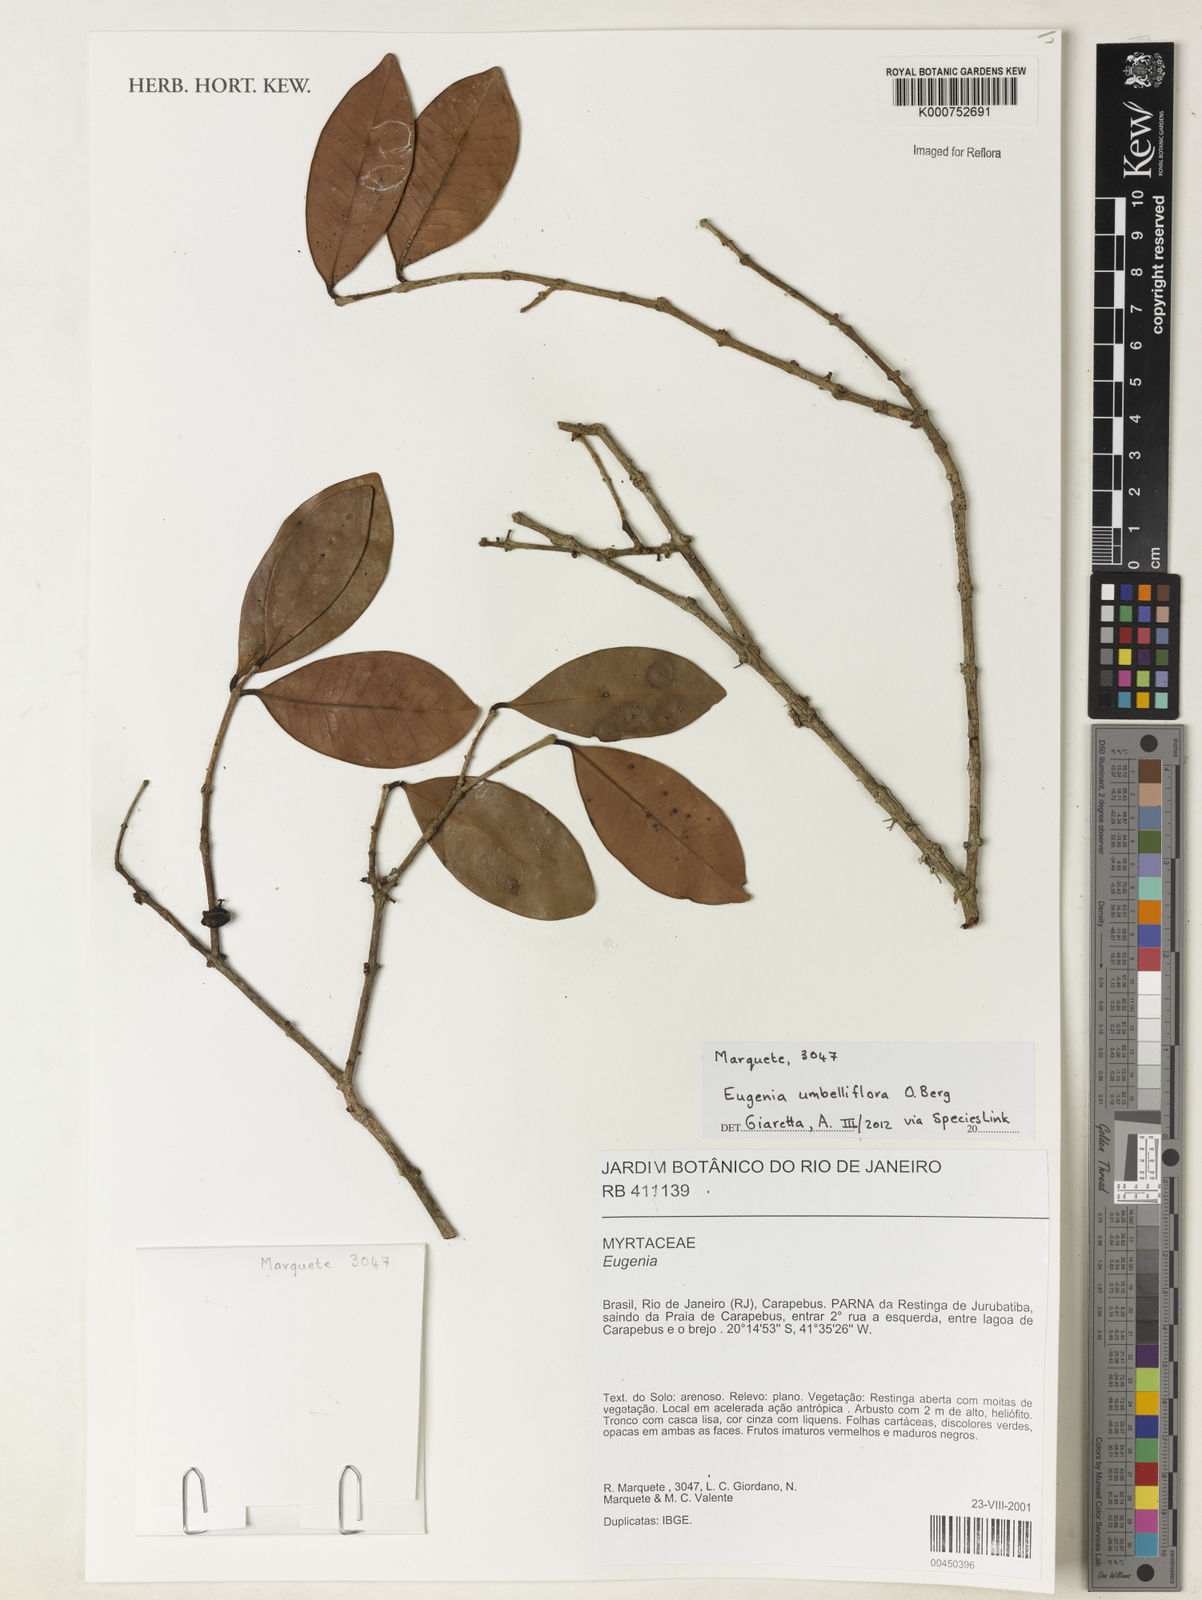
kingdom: Plantae
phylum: Tracheophyta
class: Magnoliopsida
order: Myrtales
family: Myrtaceae
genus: Eugenia
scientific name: Eugenia umbelliflora
